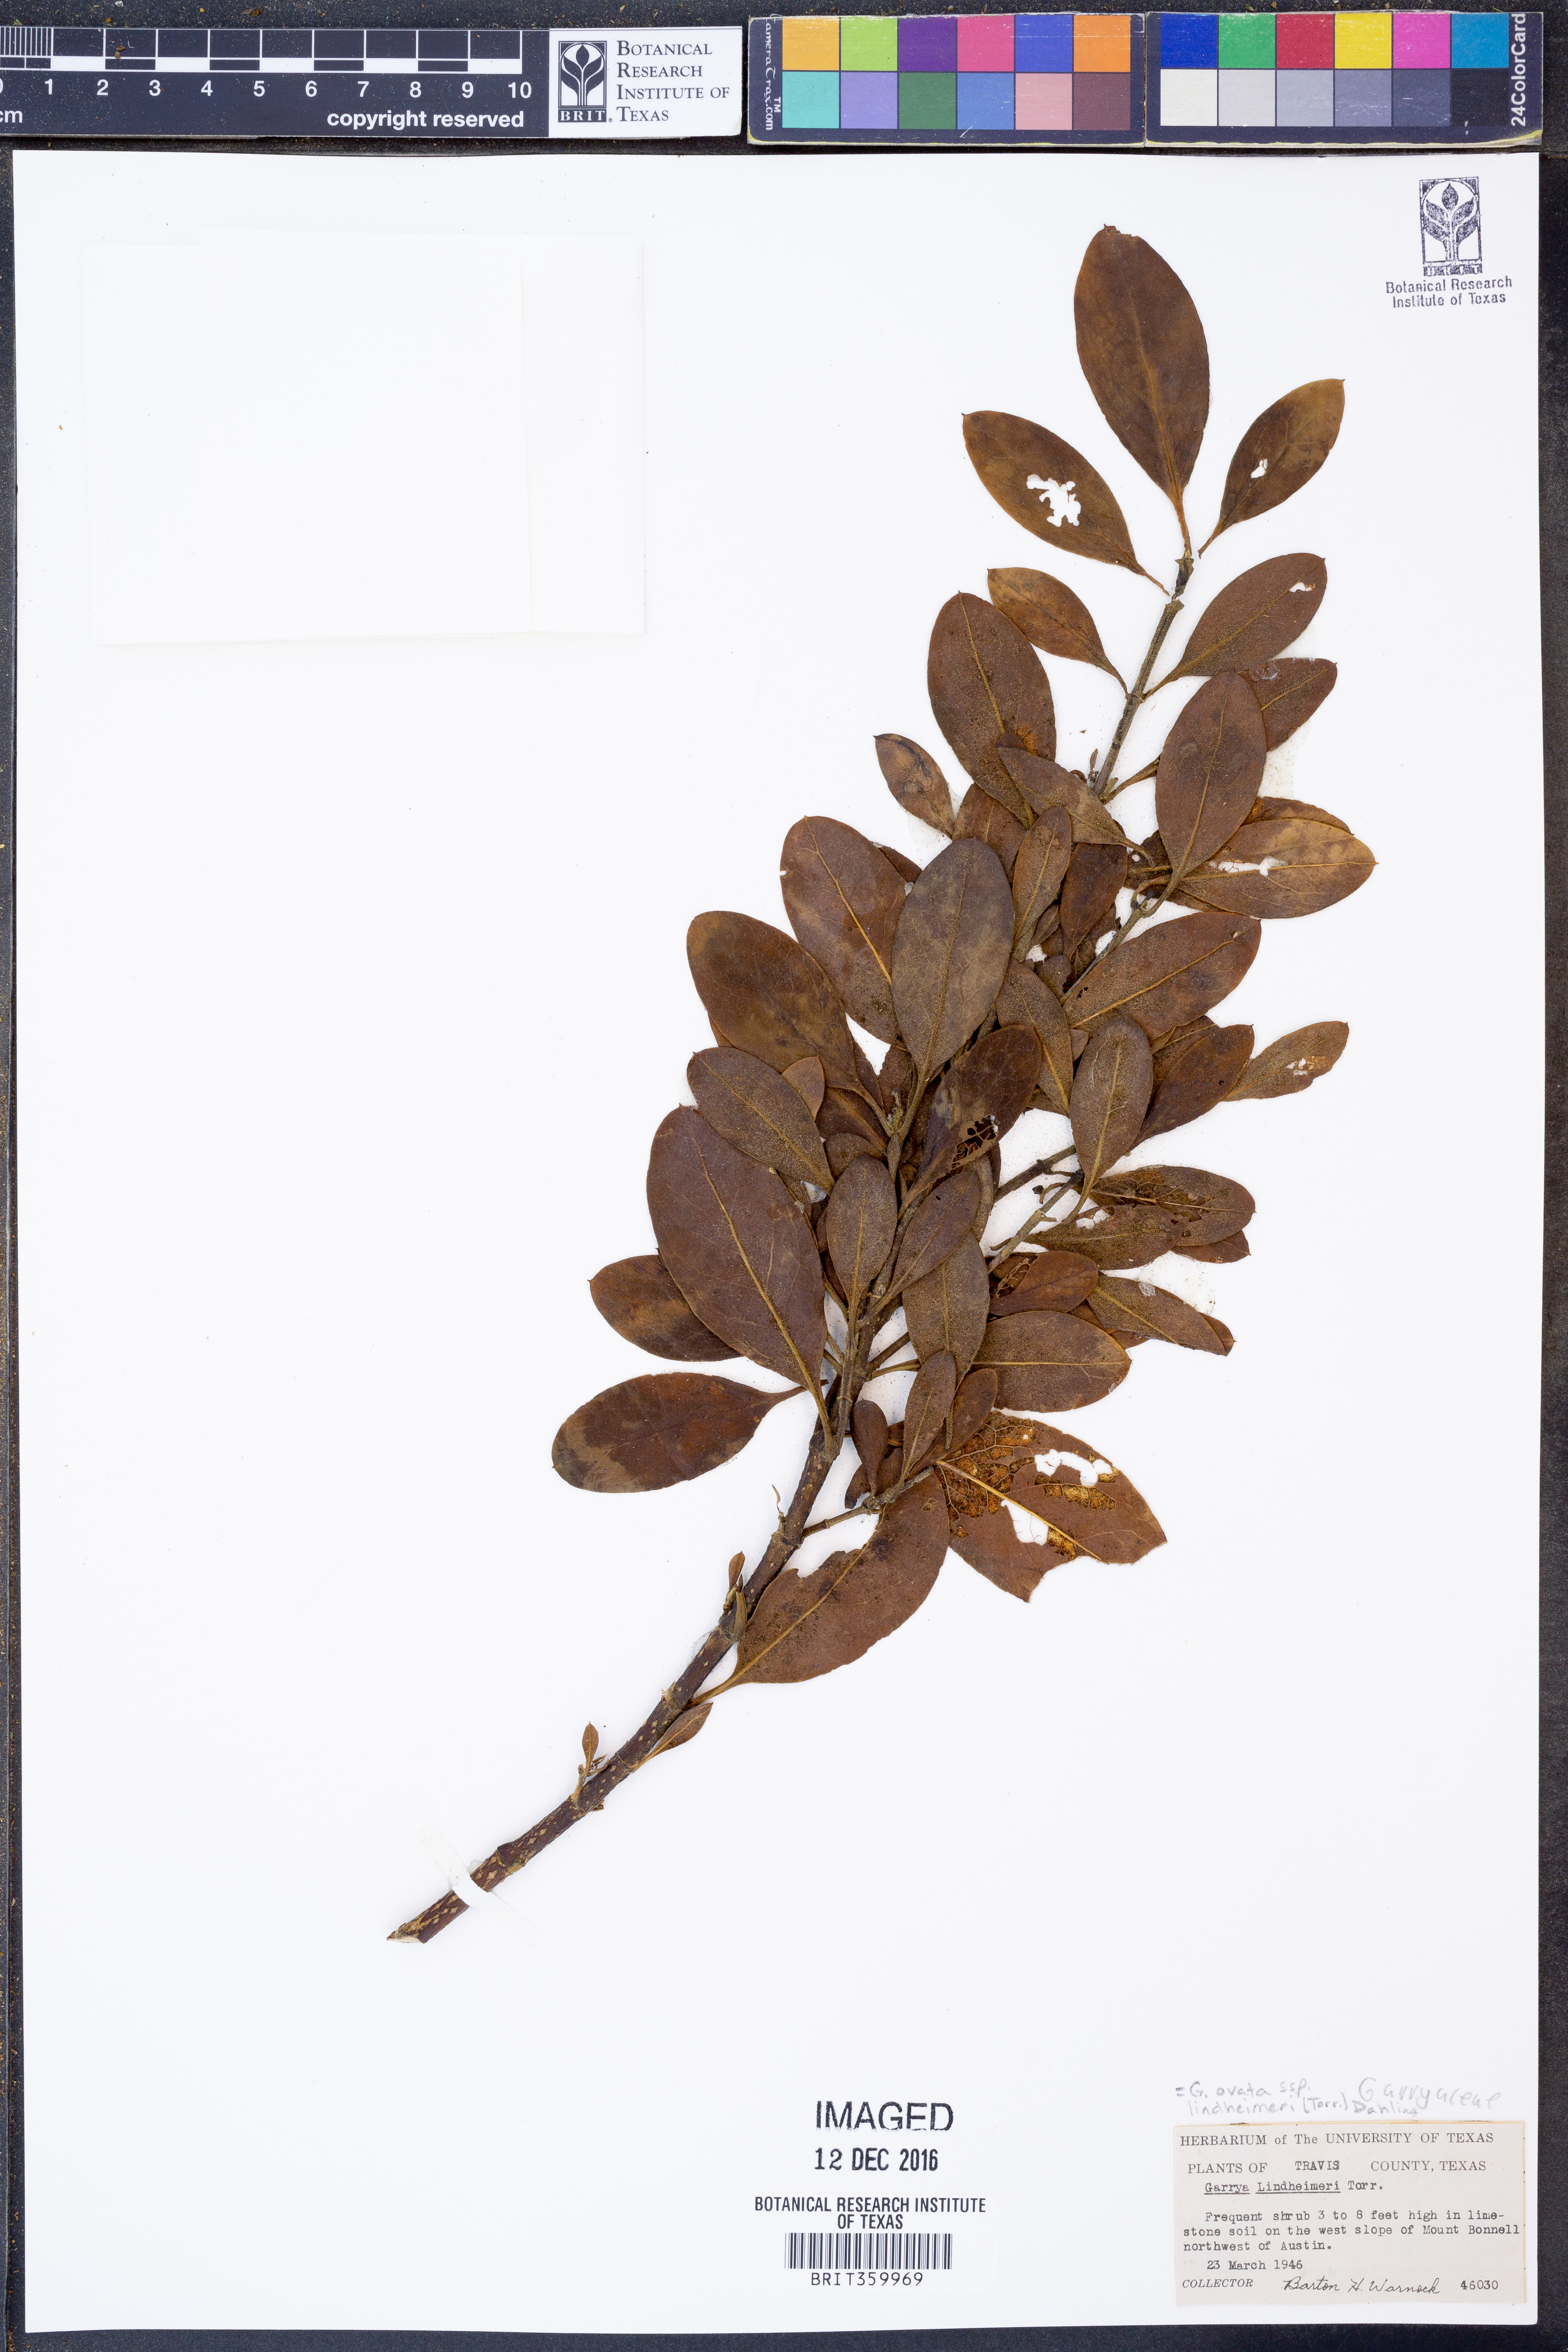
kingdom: Plantae
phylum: Tracheophyta
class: Magnoliopsida
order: Garryales
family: Garryaceae
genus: Garrya
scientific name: Garrya lindheimeri
